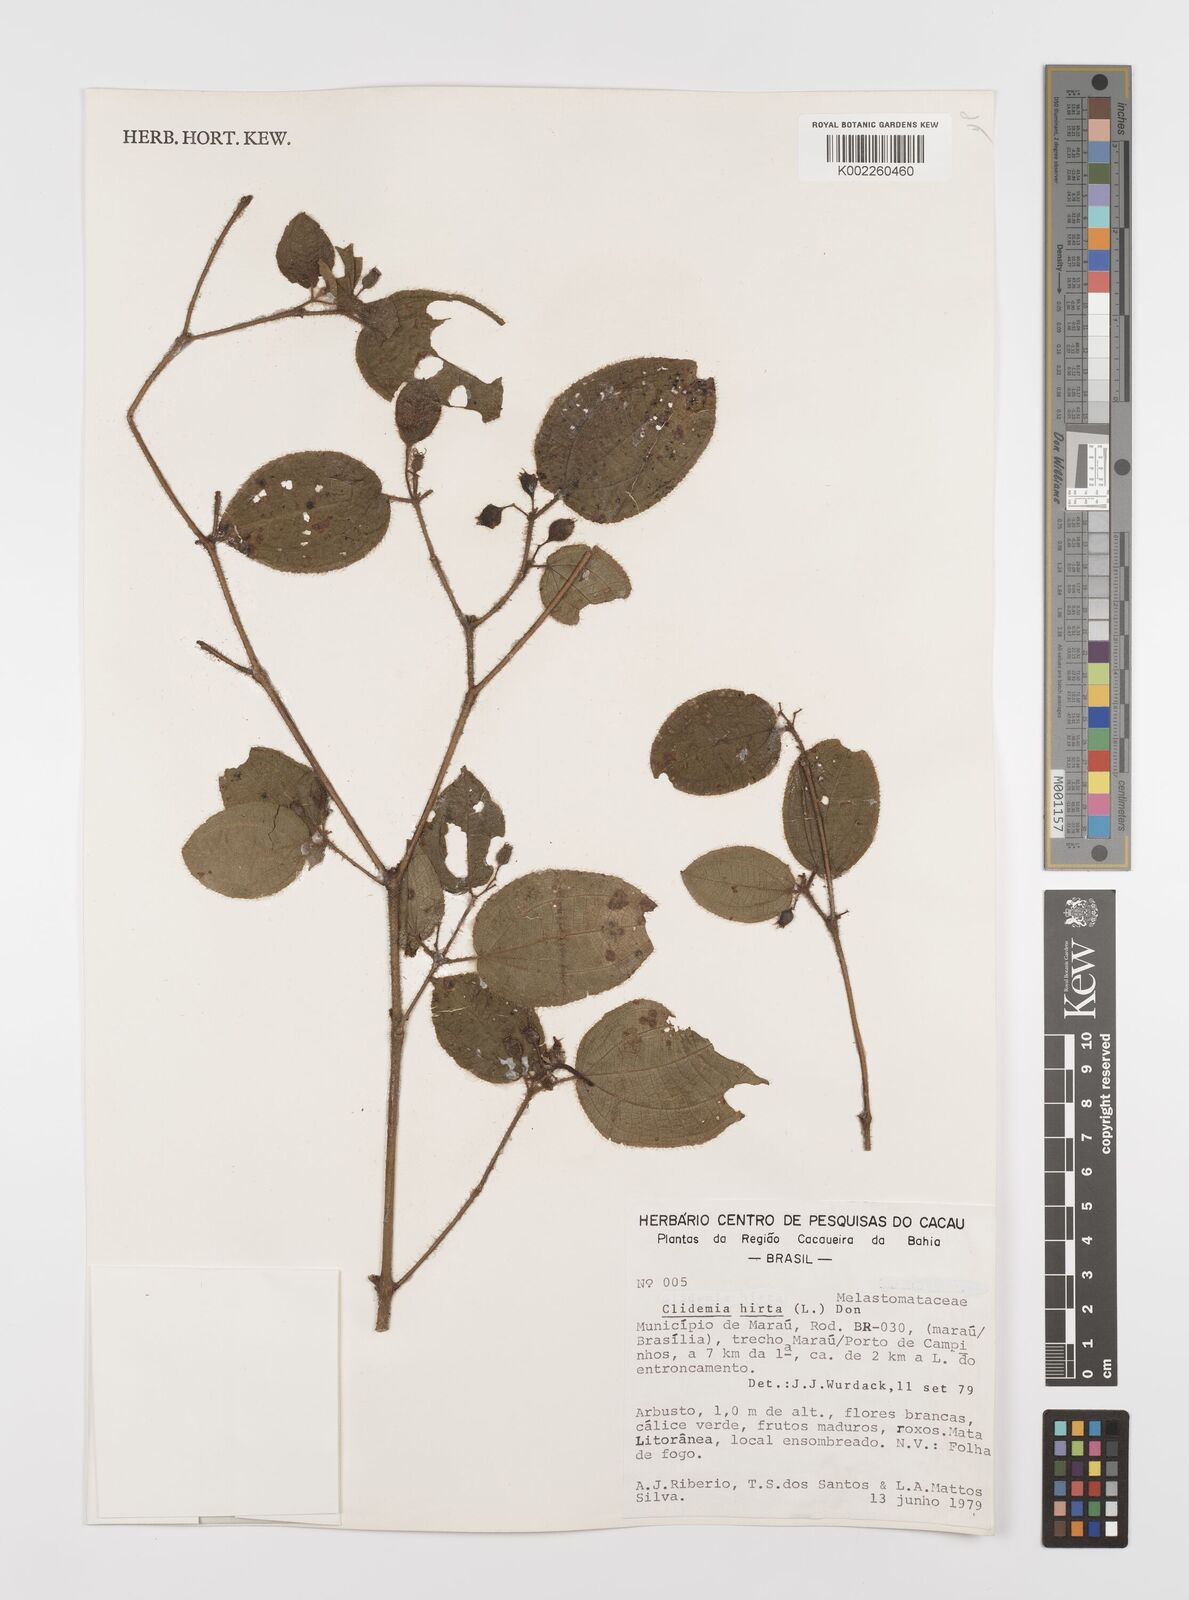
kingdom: Plantae
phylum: Tracheophyta
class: Magnoliopsida
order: Myrtales
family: Melastomataceae
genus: Miconia
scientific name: Miconia crenata
